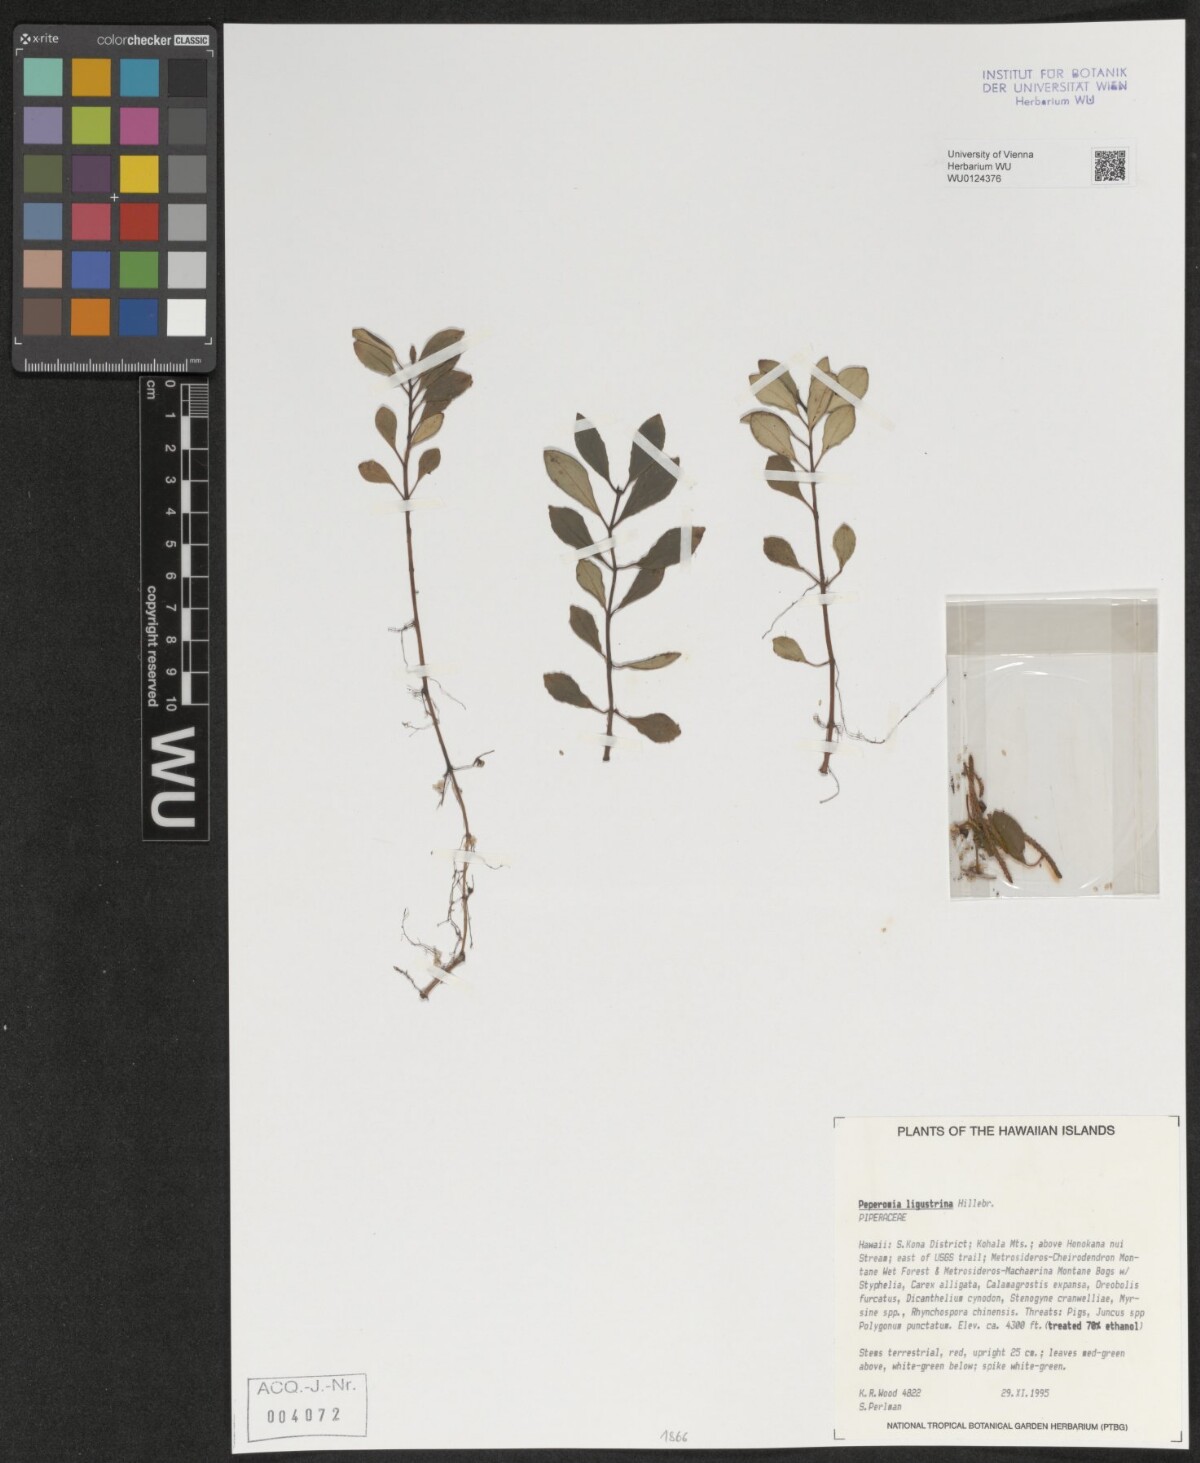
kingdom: Plantae
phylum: Tracheophyta
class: Magnoliopsida
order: Piperales
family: Piperaceae
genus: Peperomia
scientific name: Peperomia ligustrina
